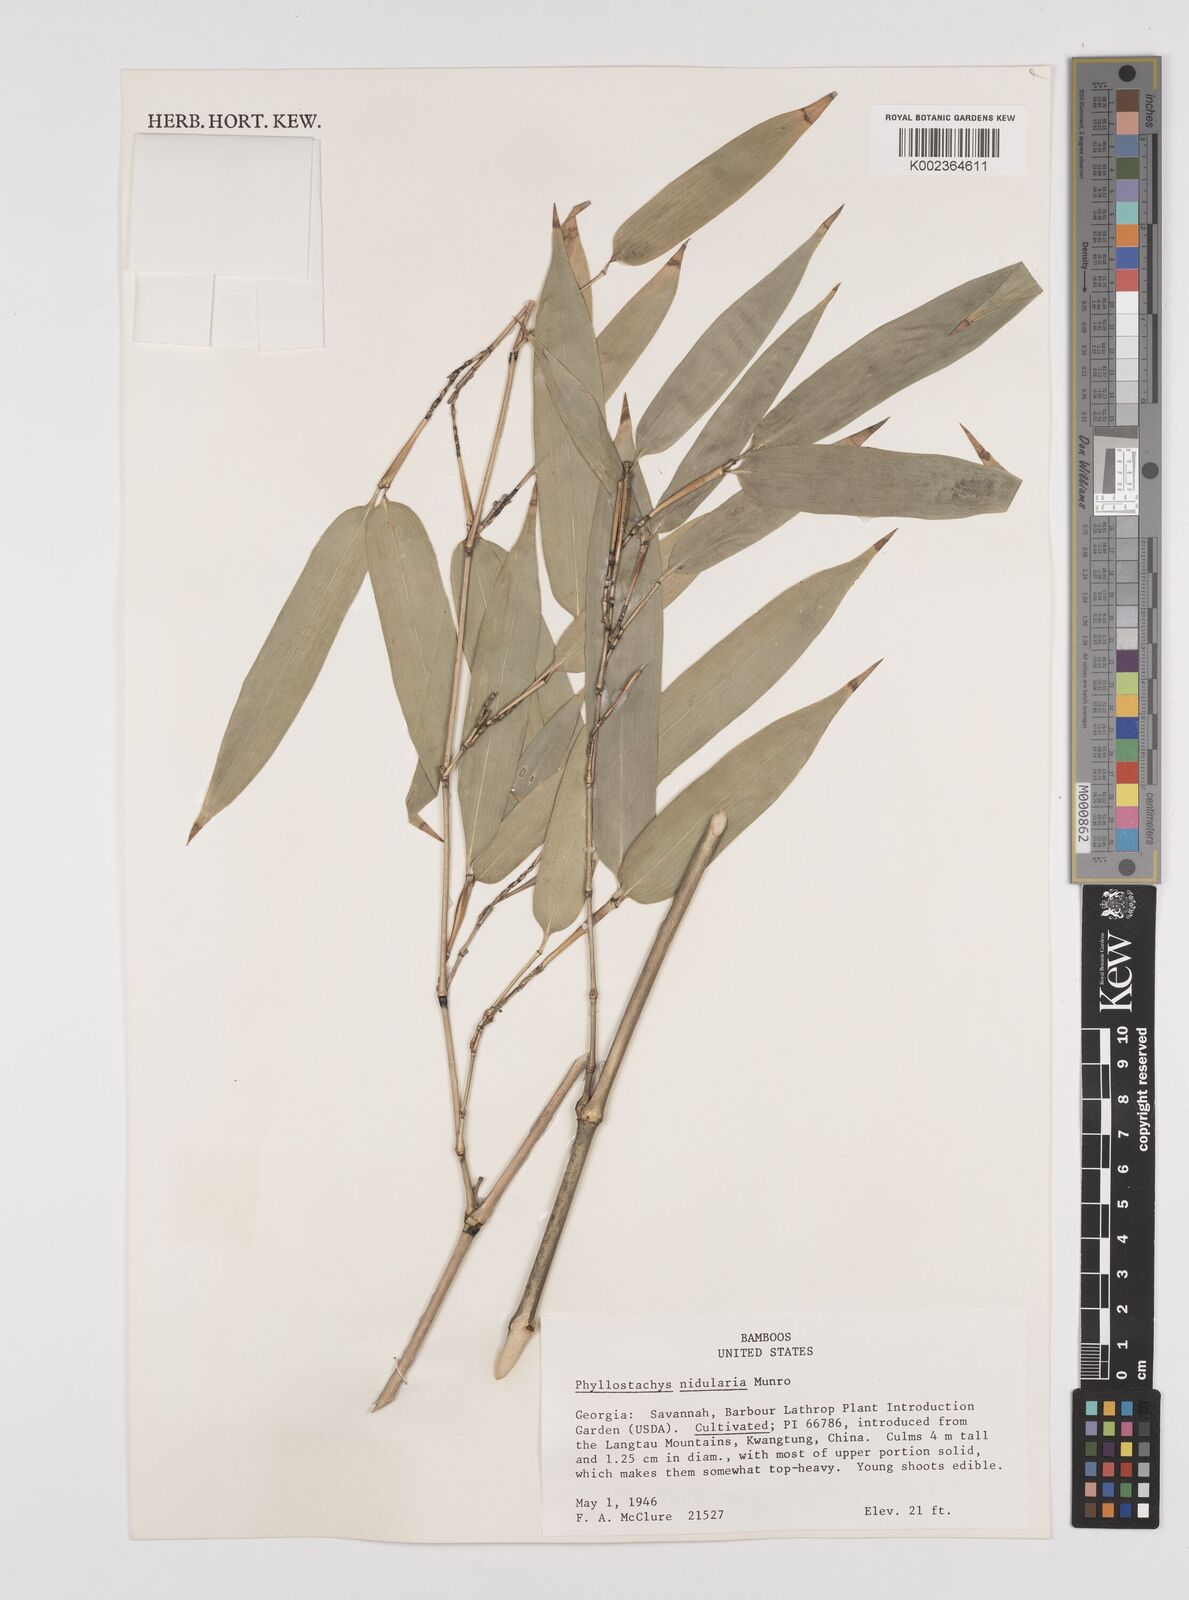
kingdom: Plantae
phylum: Tracheophyta
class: Liliopsida
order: Poales
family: Poaceae
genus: Phyllostachys
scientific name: Phyllostachys nidularia
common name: Broom bamboo
